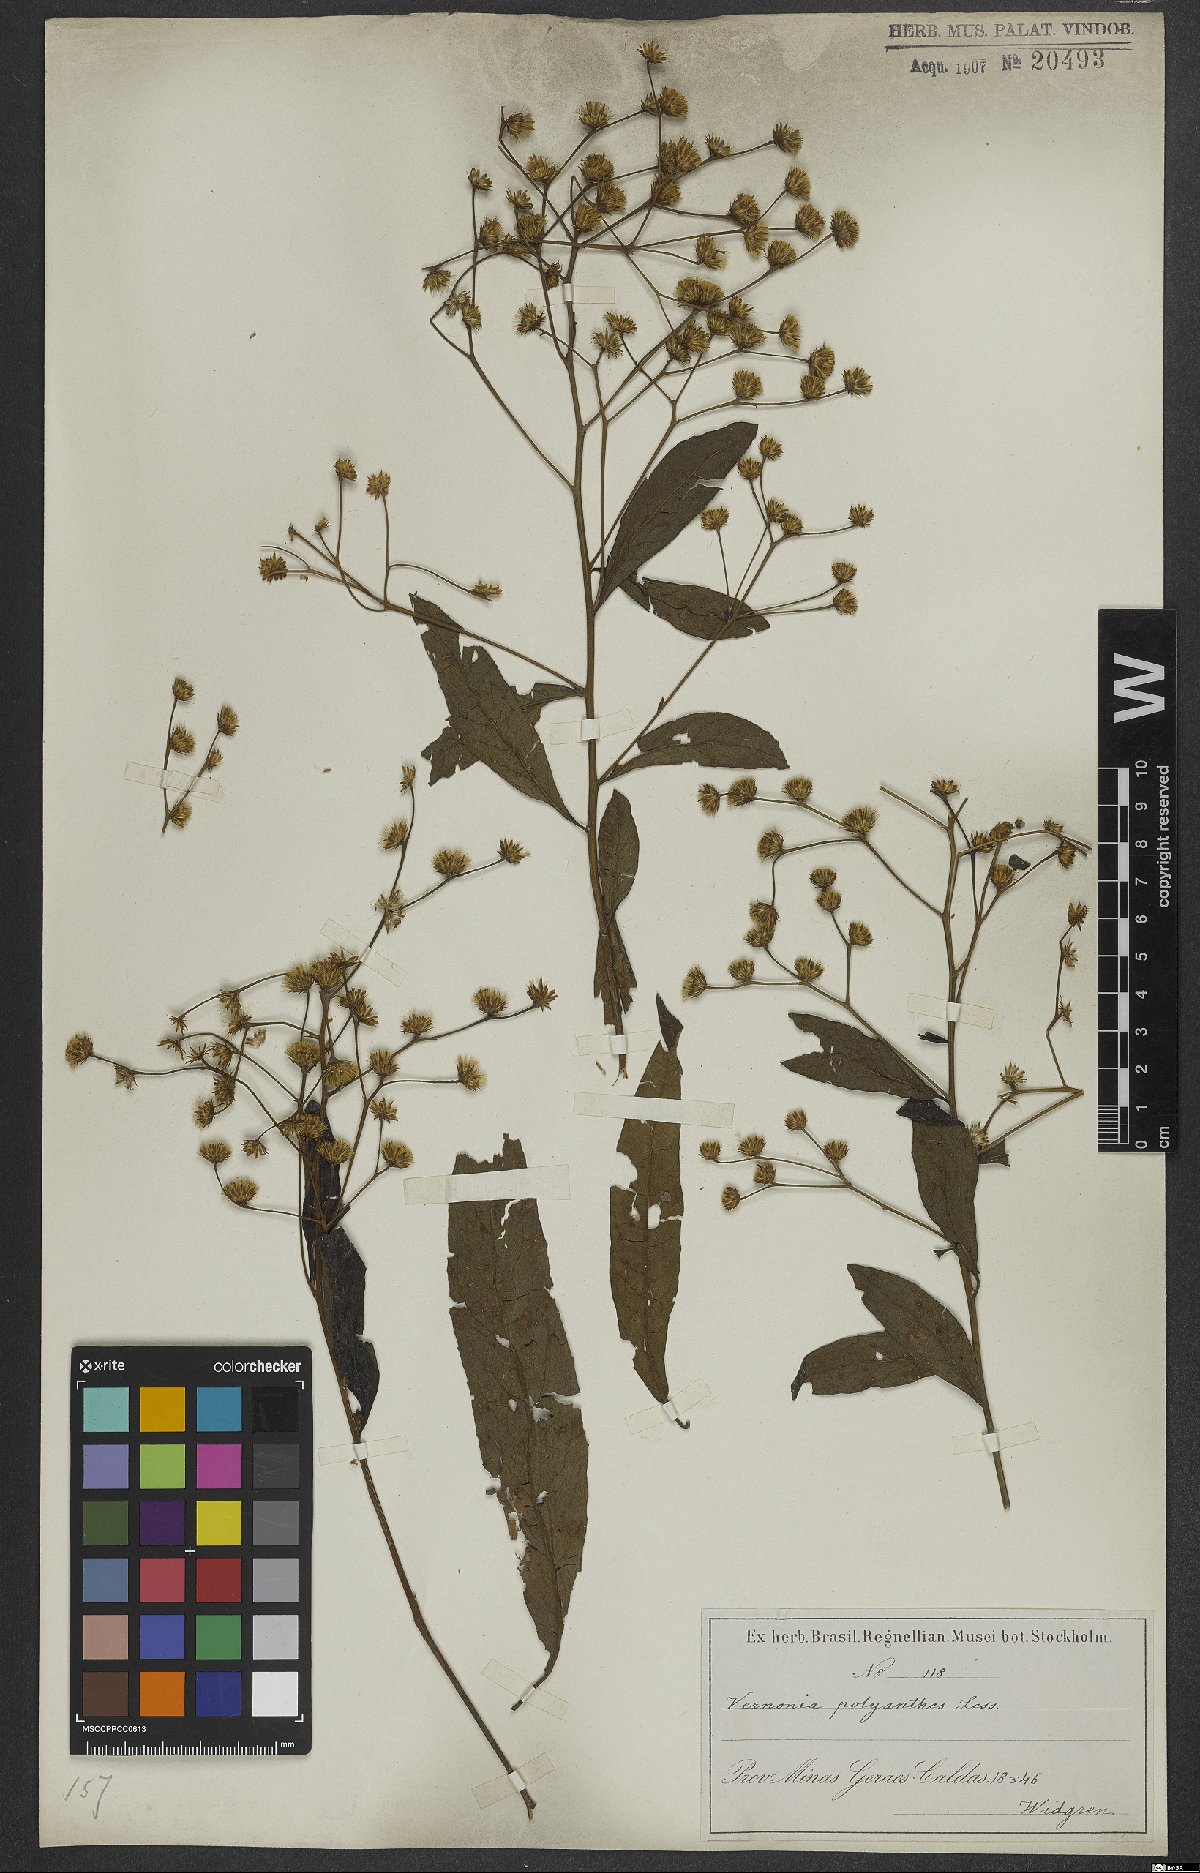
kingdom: Plantae
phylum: Tracheophyta
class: Magnoliopsida
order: Asterales
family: Asteraceae
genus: Vernonanthura
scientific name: Vernonanthura polyanthes
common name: Tree aster
